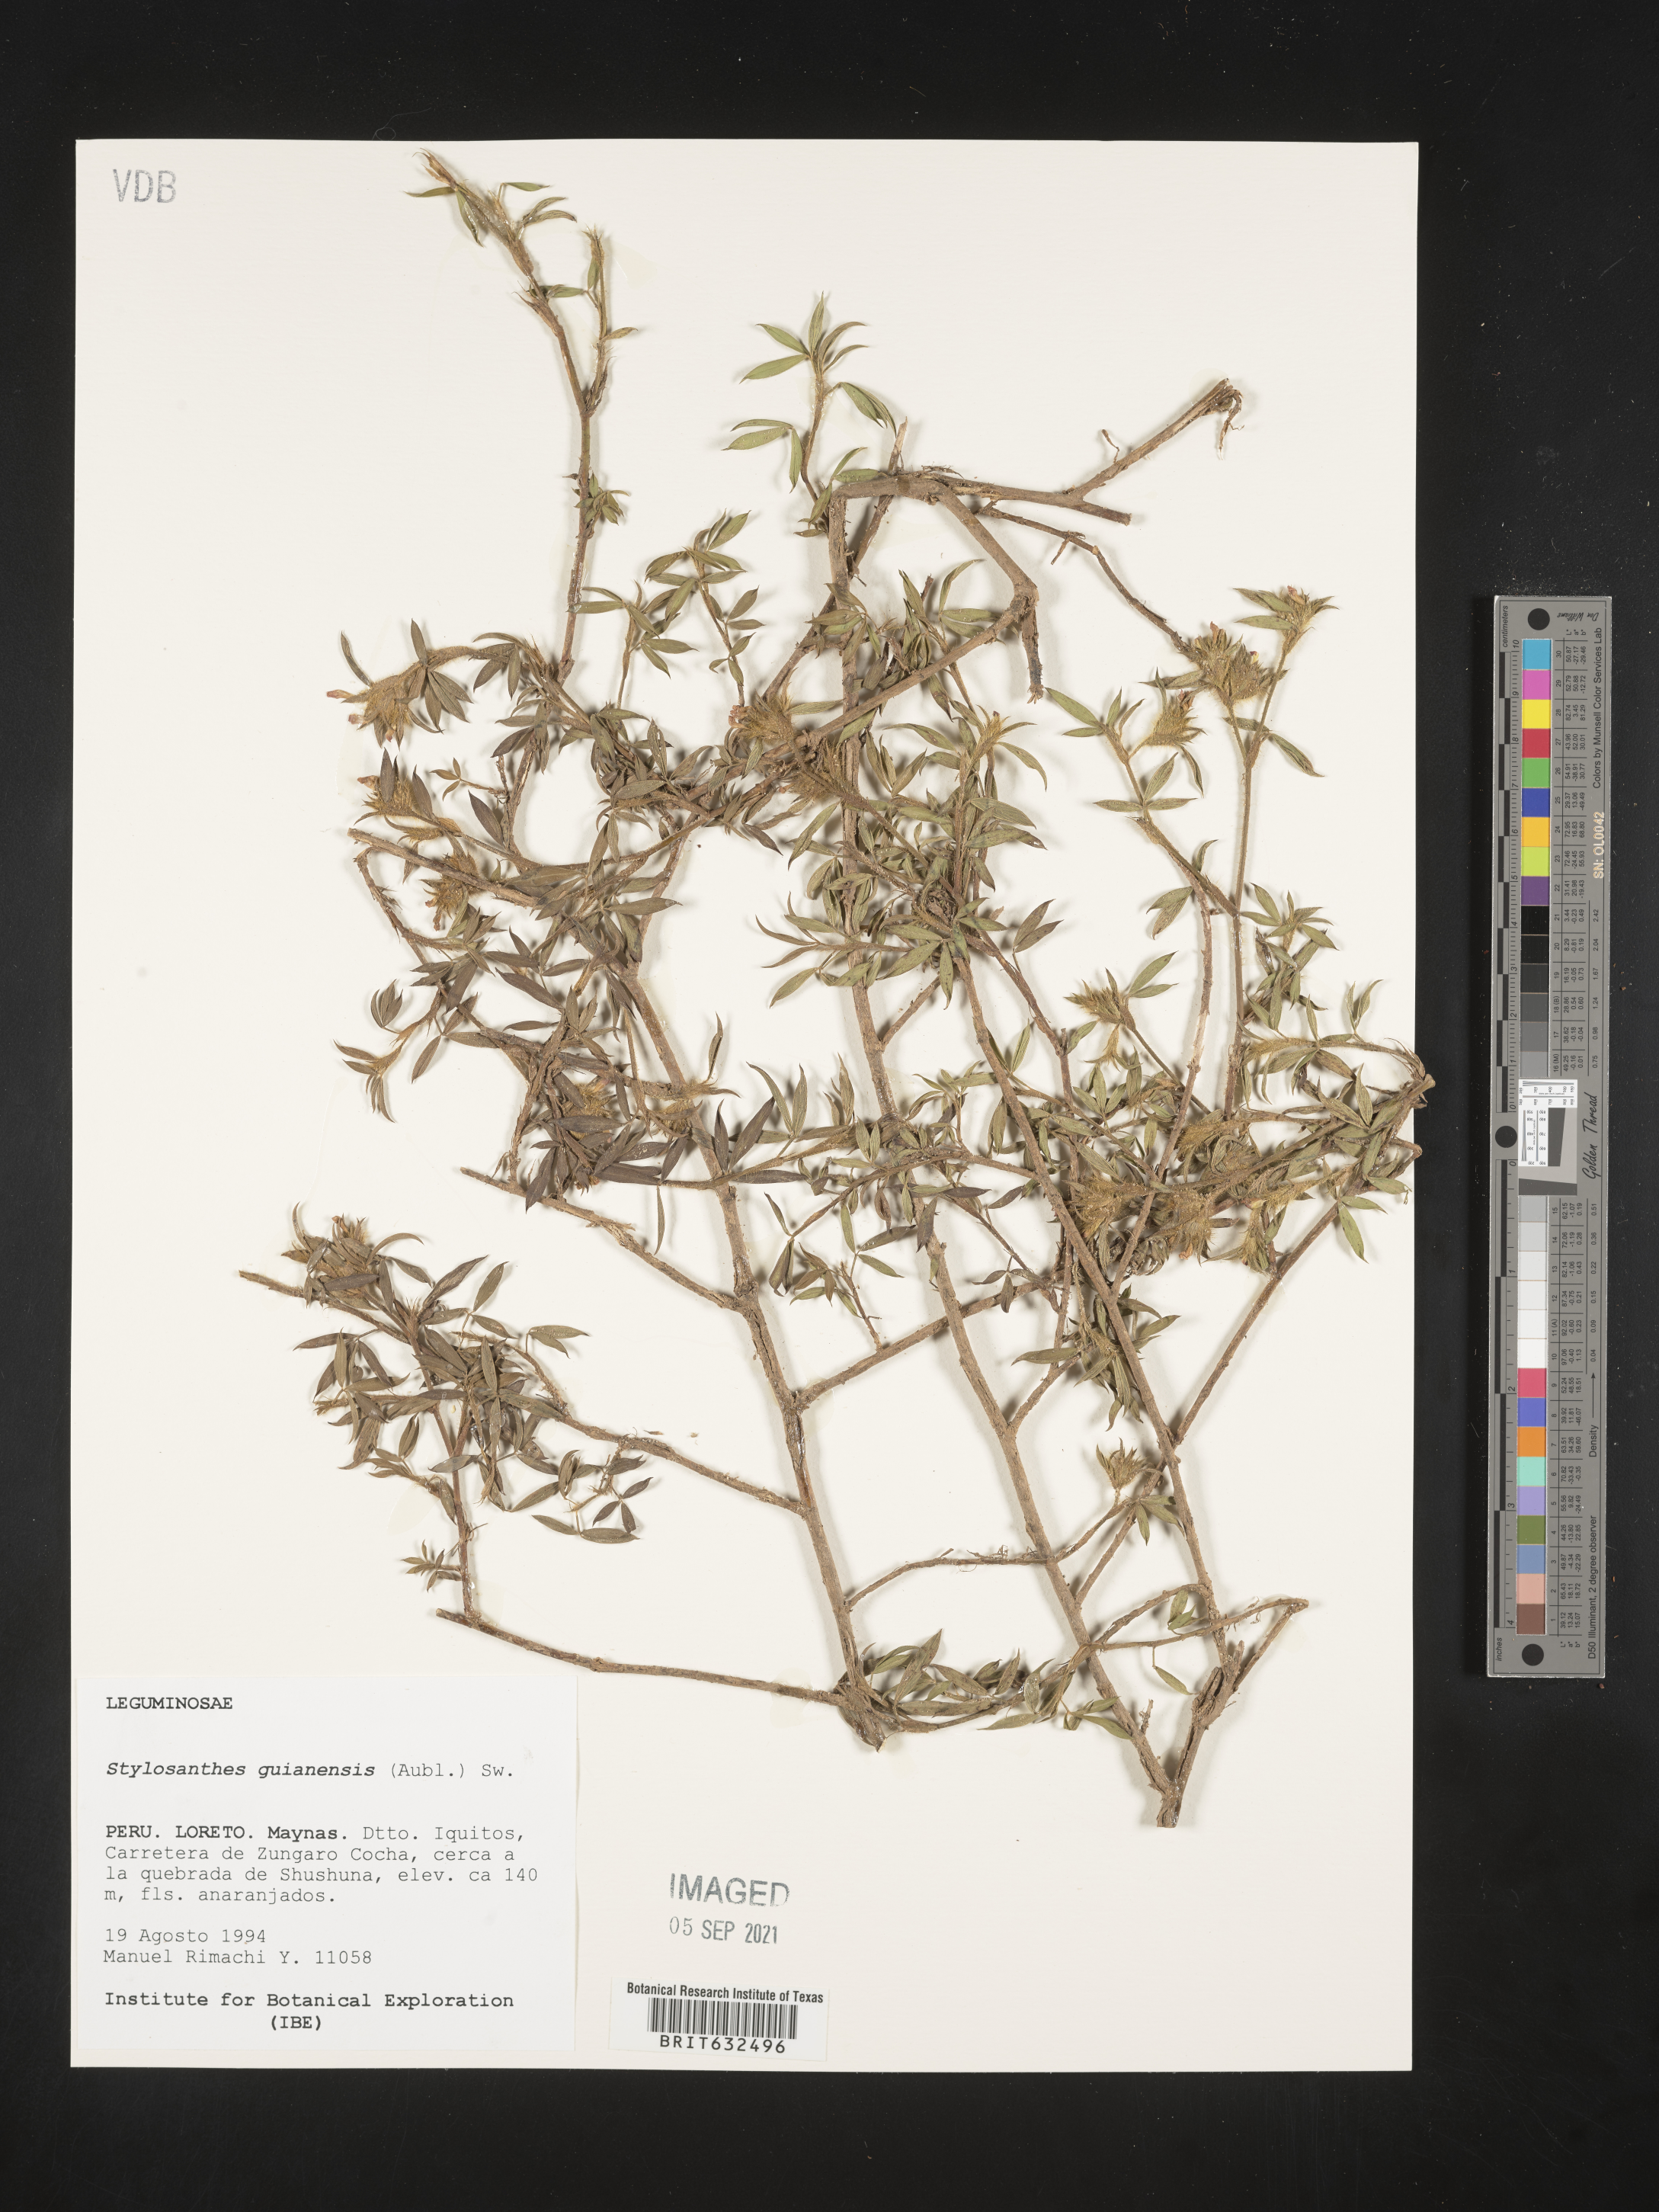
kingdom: Plantae
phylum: Tracheophyta
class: Magnoliopsida
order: Fabales
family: Fabaceae
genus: Stylosanthes
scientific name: Stylosanthes
